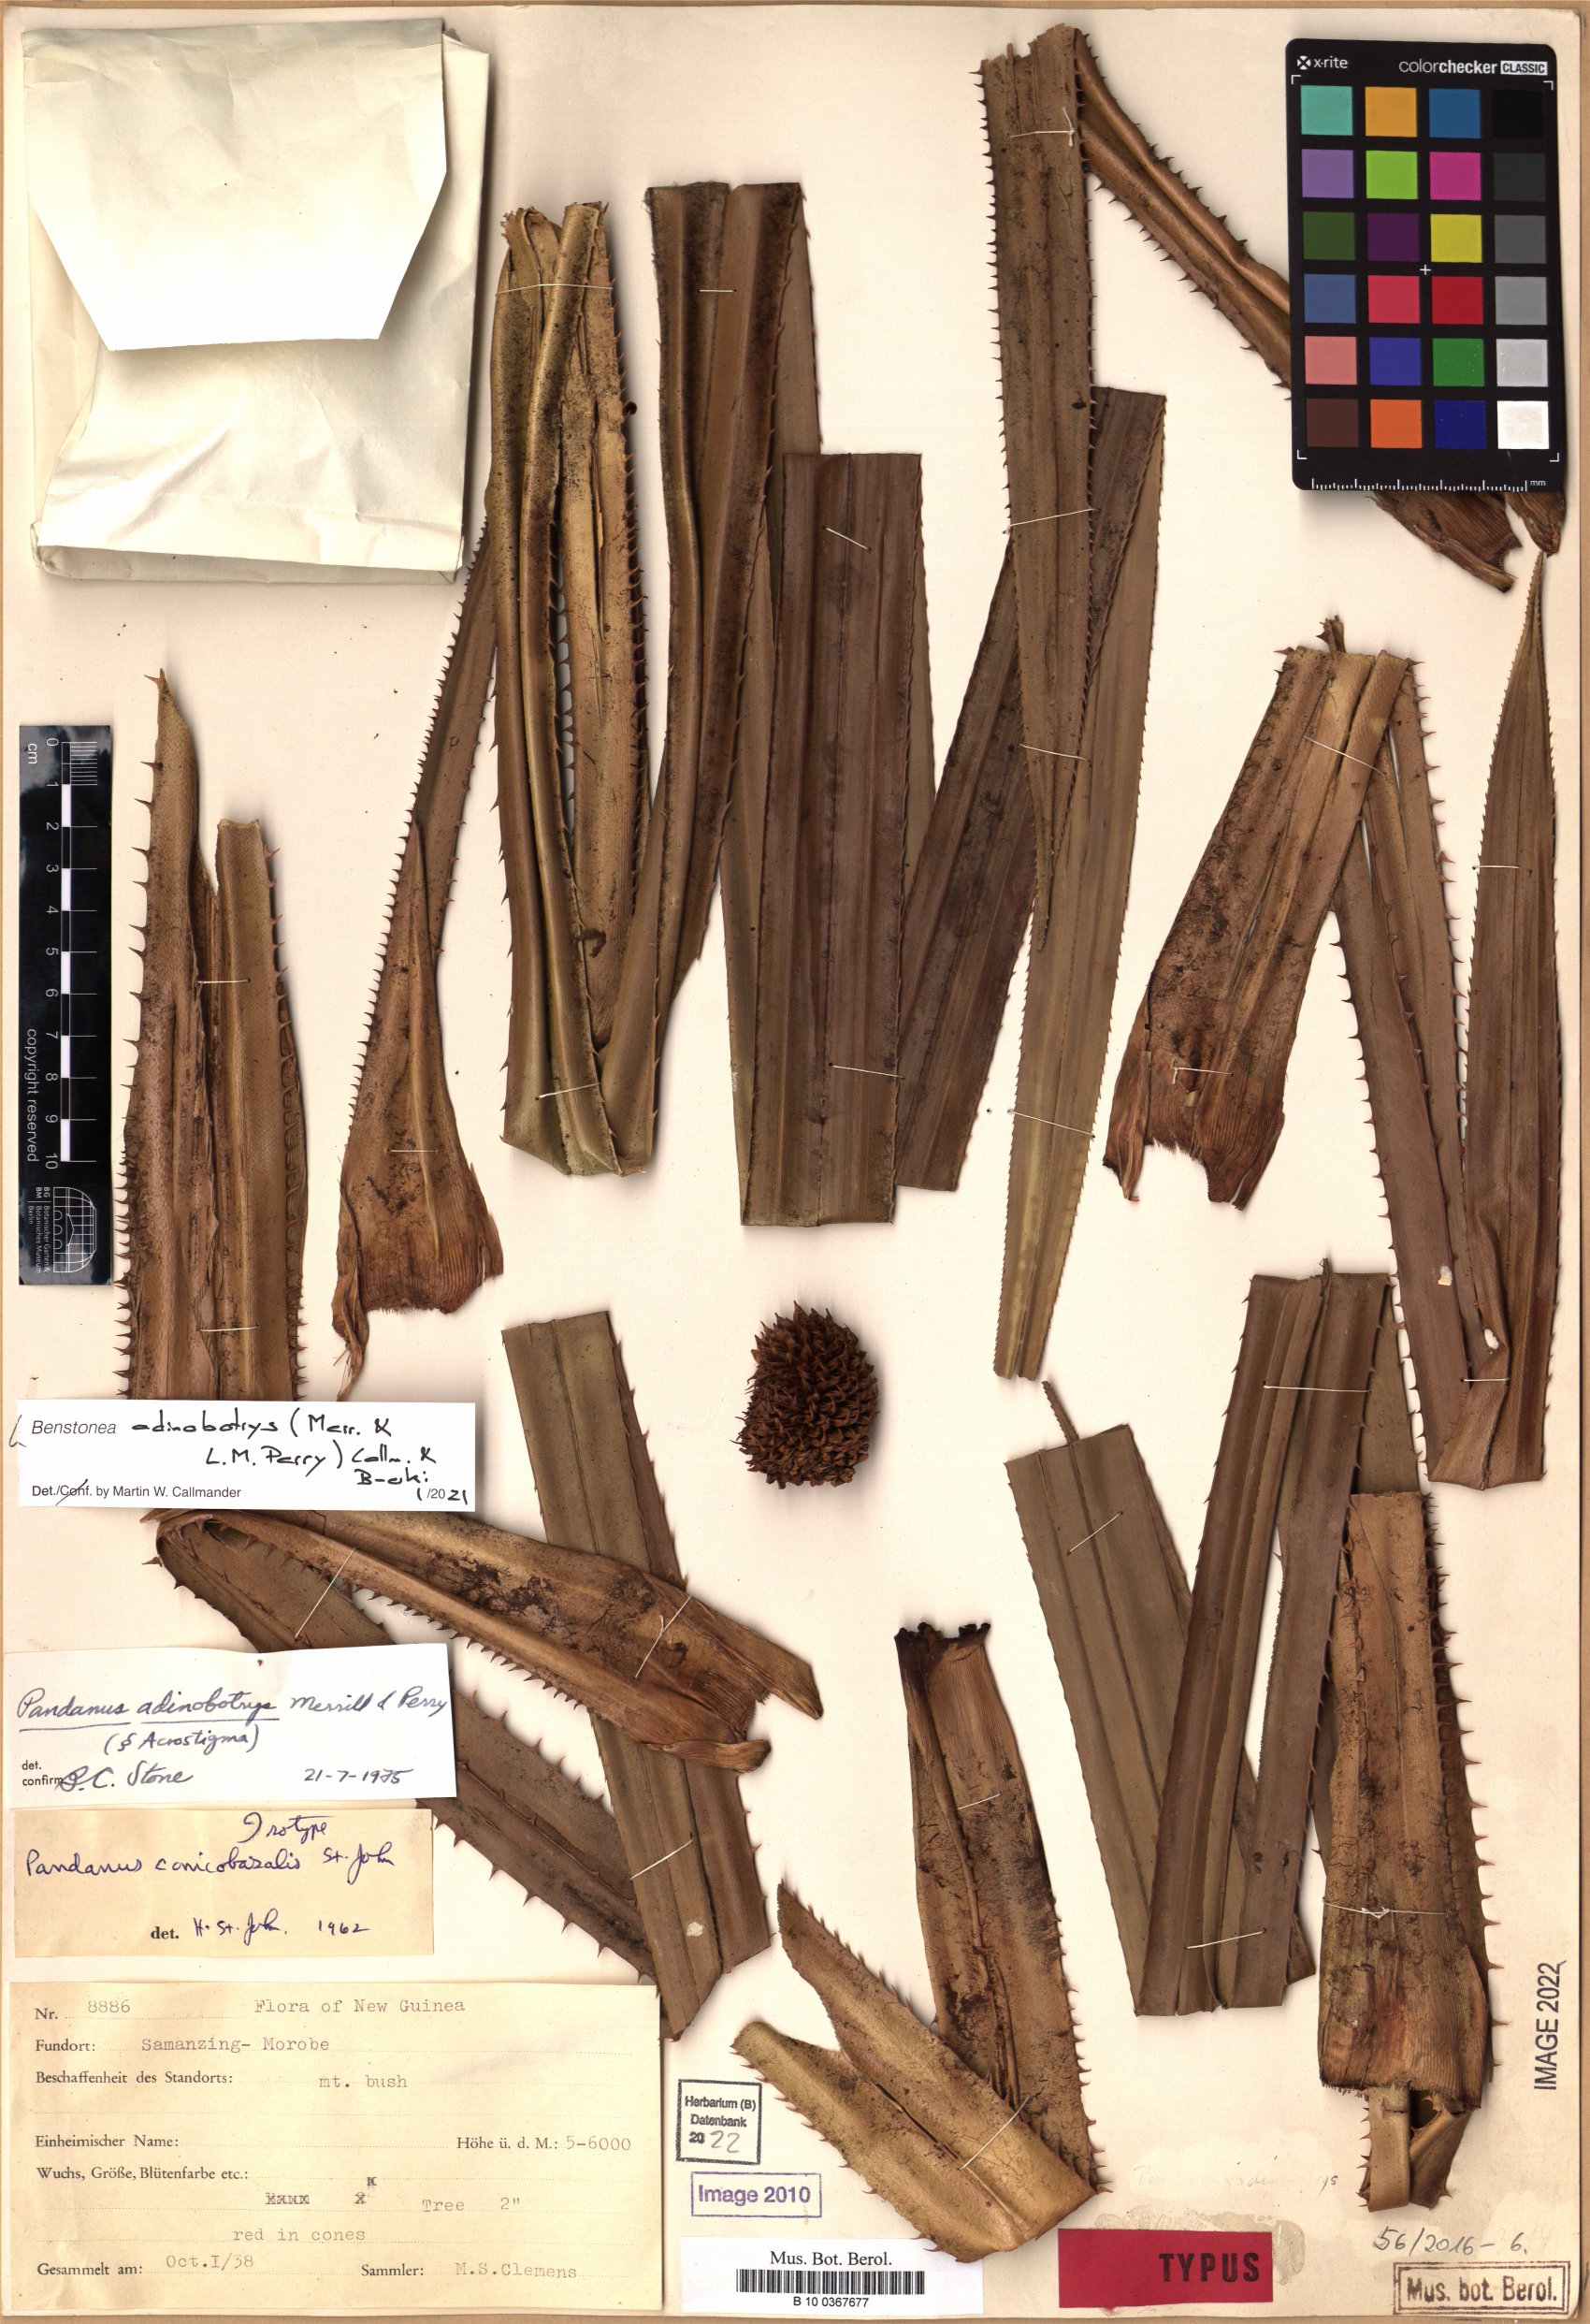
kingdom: Plantae
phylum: Tracheophyta
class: Liliopsida
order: Pandanales
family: Pandanaceae
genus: Benstonea
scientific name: Benstonea adinobotrys
